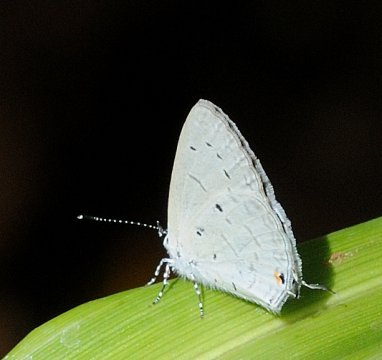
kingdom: Animalia
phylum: Arthropoda
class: Insecta
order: Lepidoptera
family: Lycaenidae
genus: Eicochrysops
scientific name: Eicochrysops hippocrates
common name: White-tipped Blue
